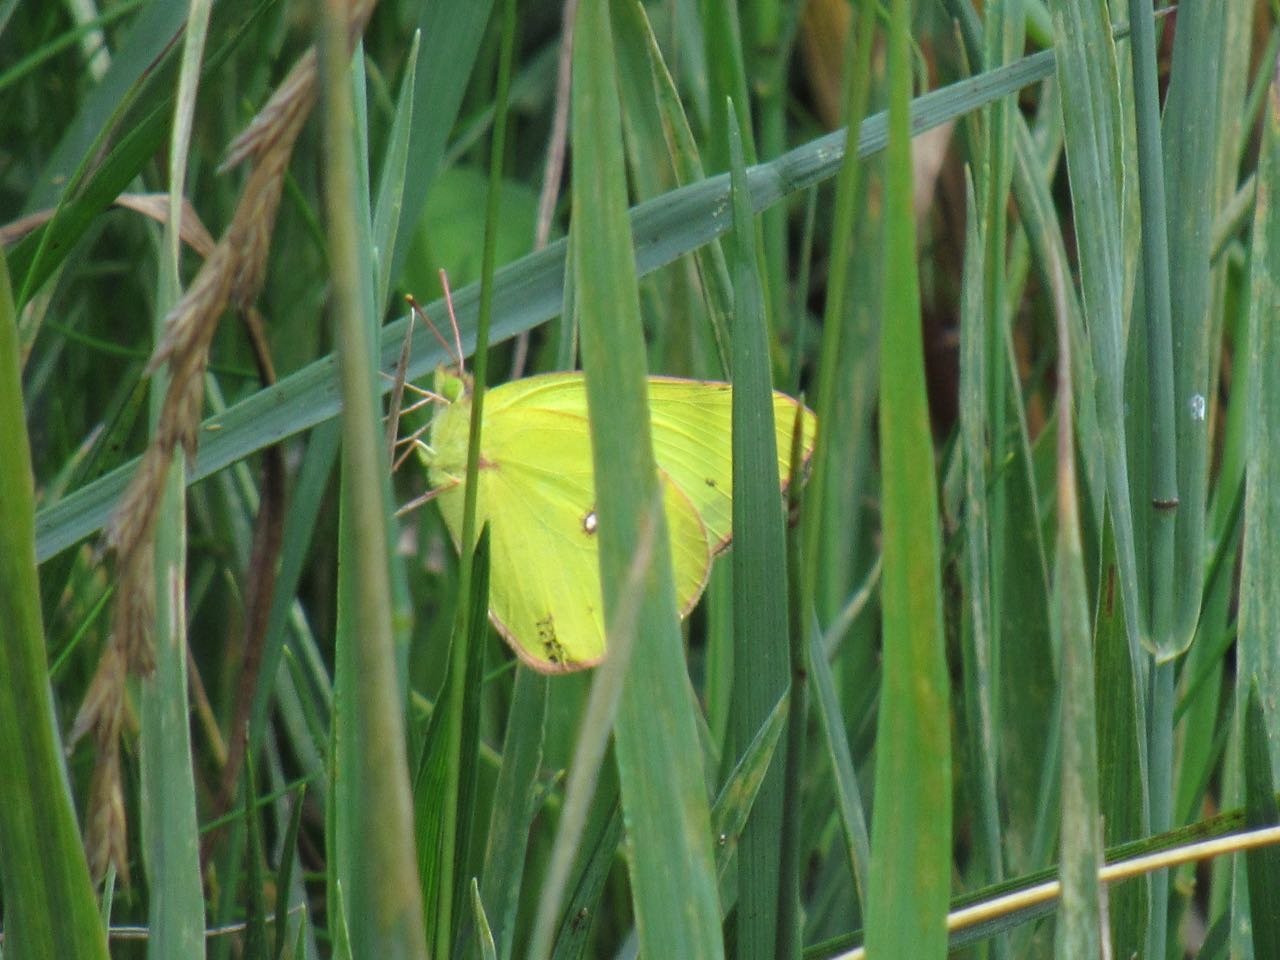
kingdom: Animalia
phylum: Arthropoda
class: Insecta
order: Lepidoptera
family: Pieridae
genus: Colias
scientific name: Colias philodice
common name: Clouded Sulphur
